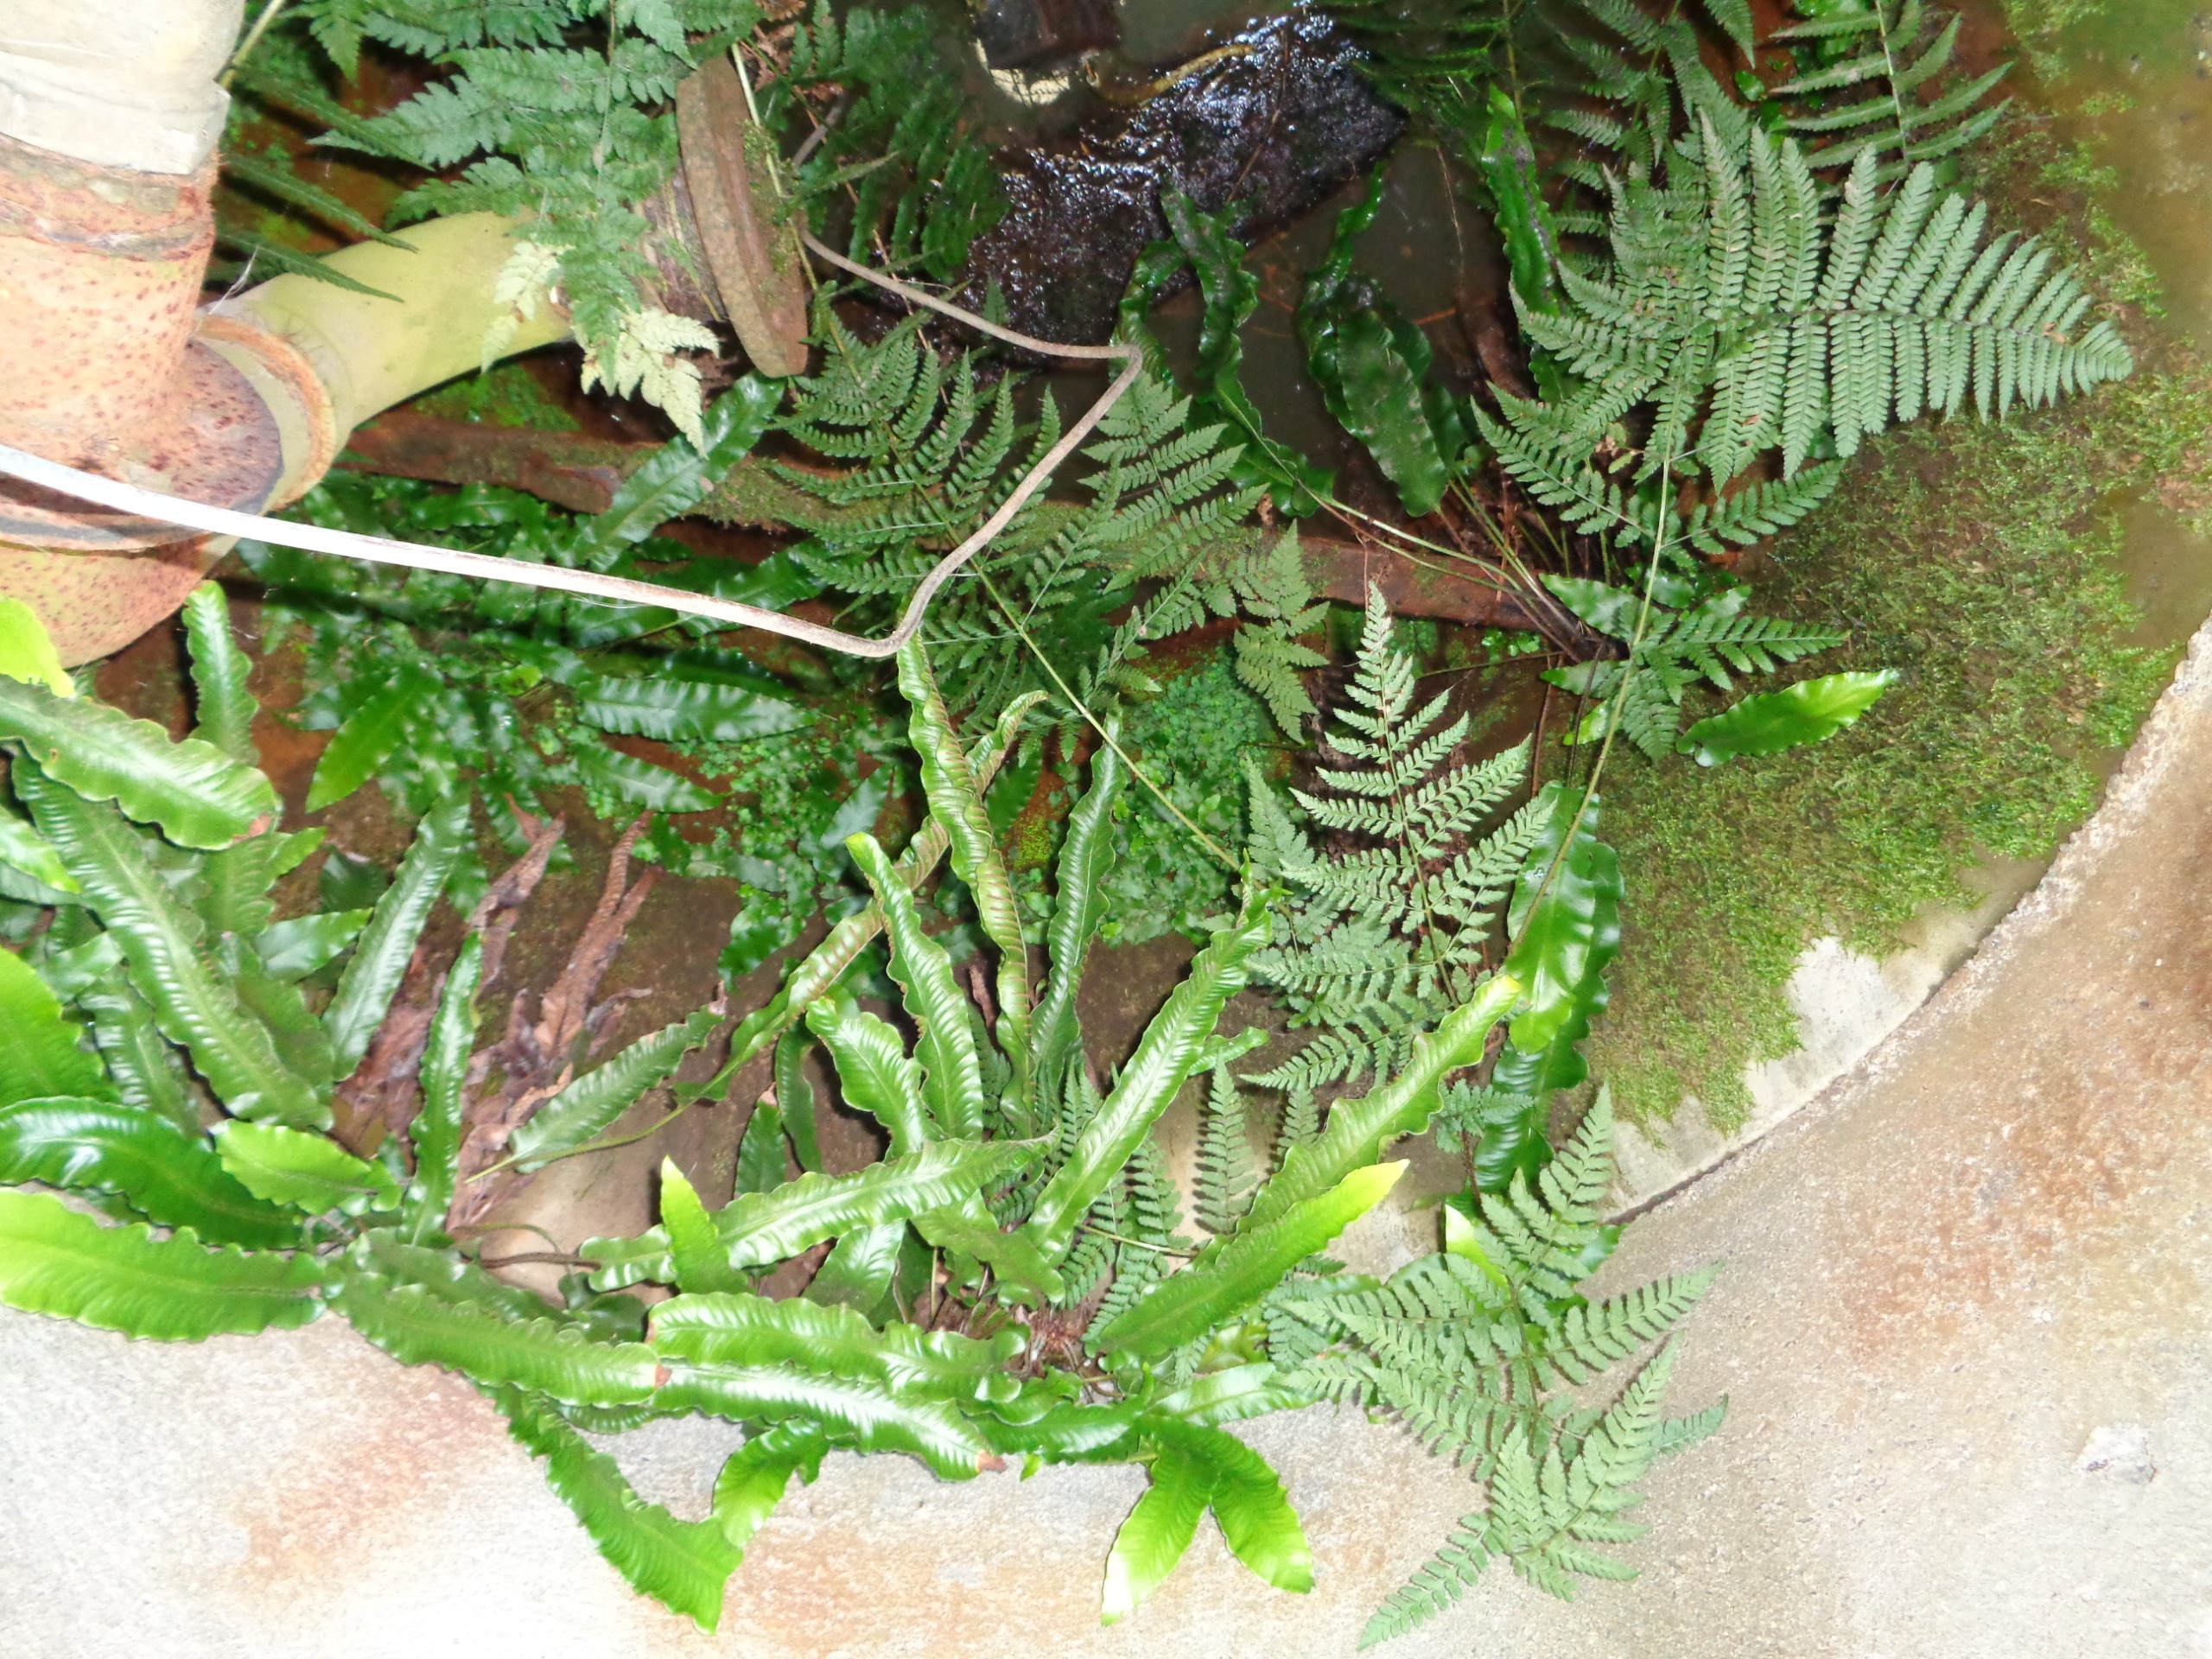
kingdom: Plantae
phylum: Tracheophyta
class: Polypodiopsida
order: Polypodiales
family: Aspleniaceae
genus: Asplenium
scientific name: Asplenium scolopendrium
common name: Hjortetunge
